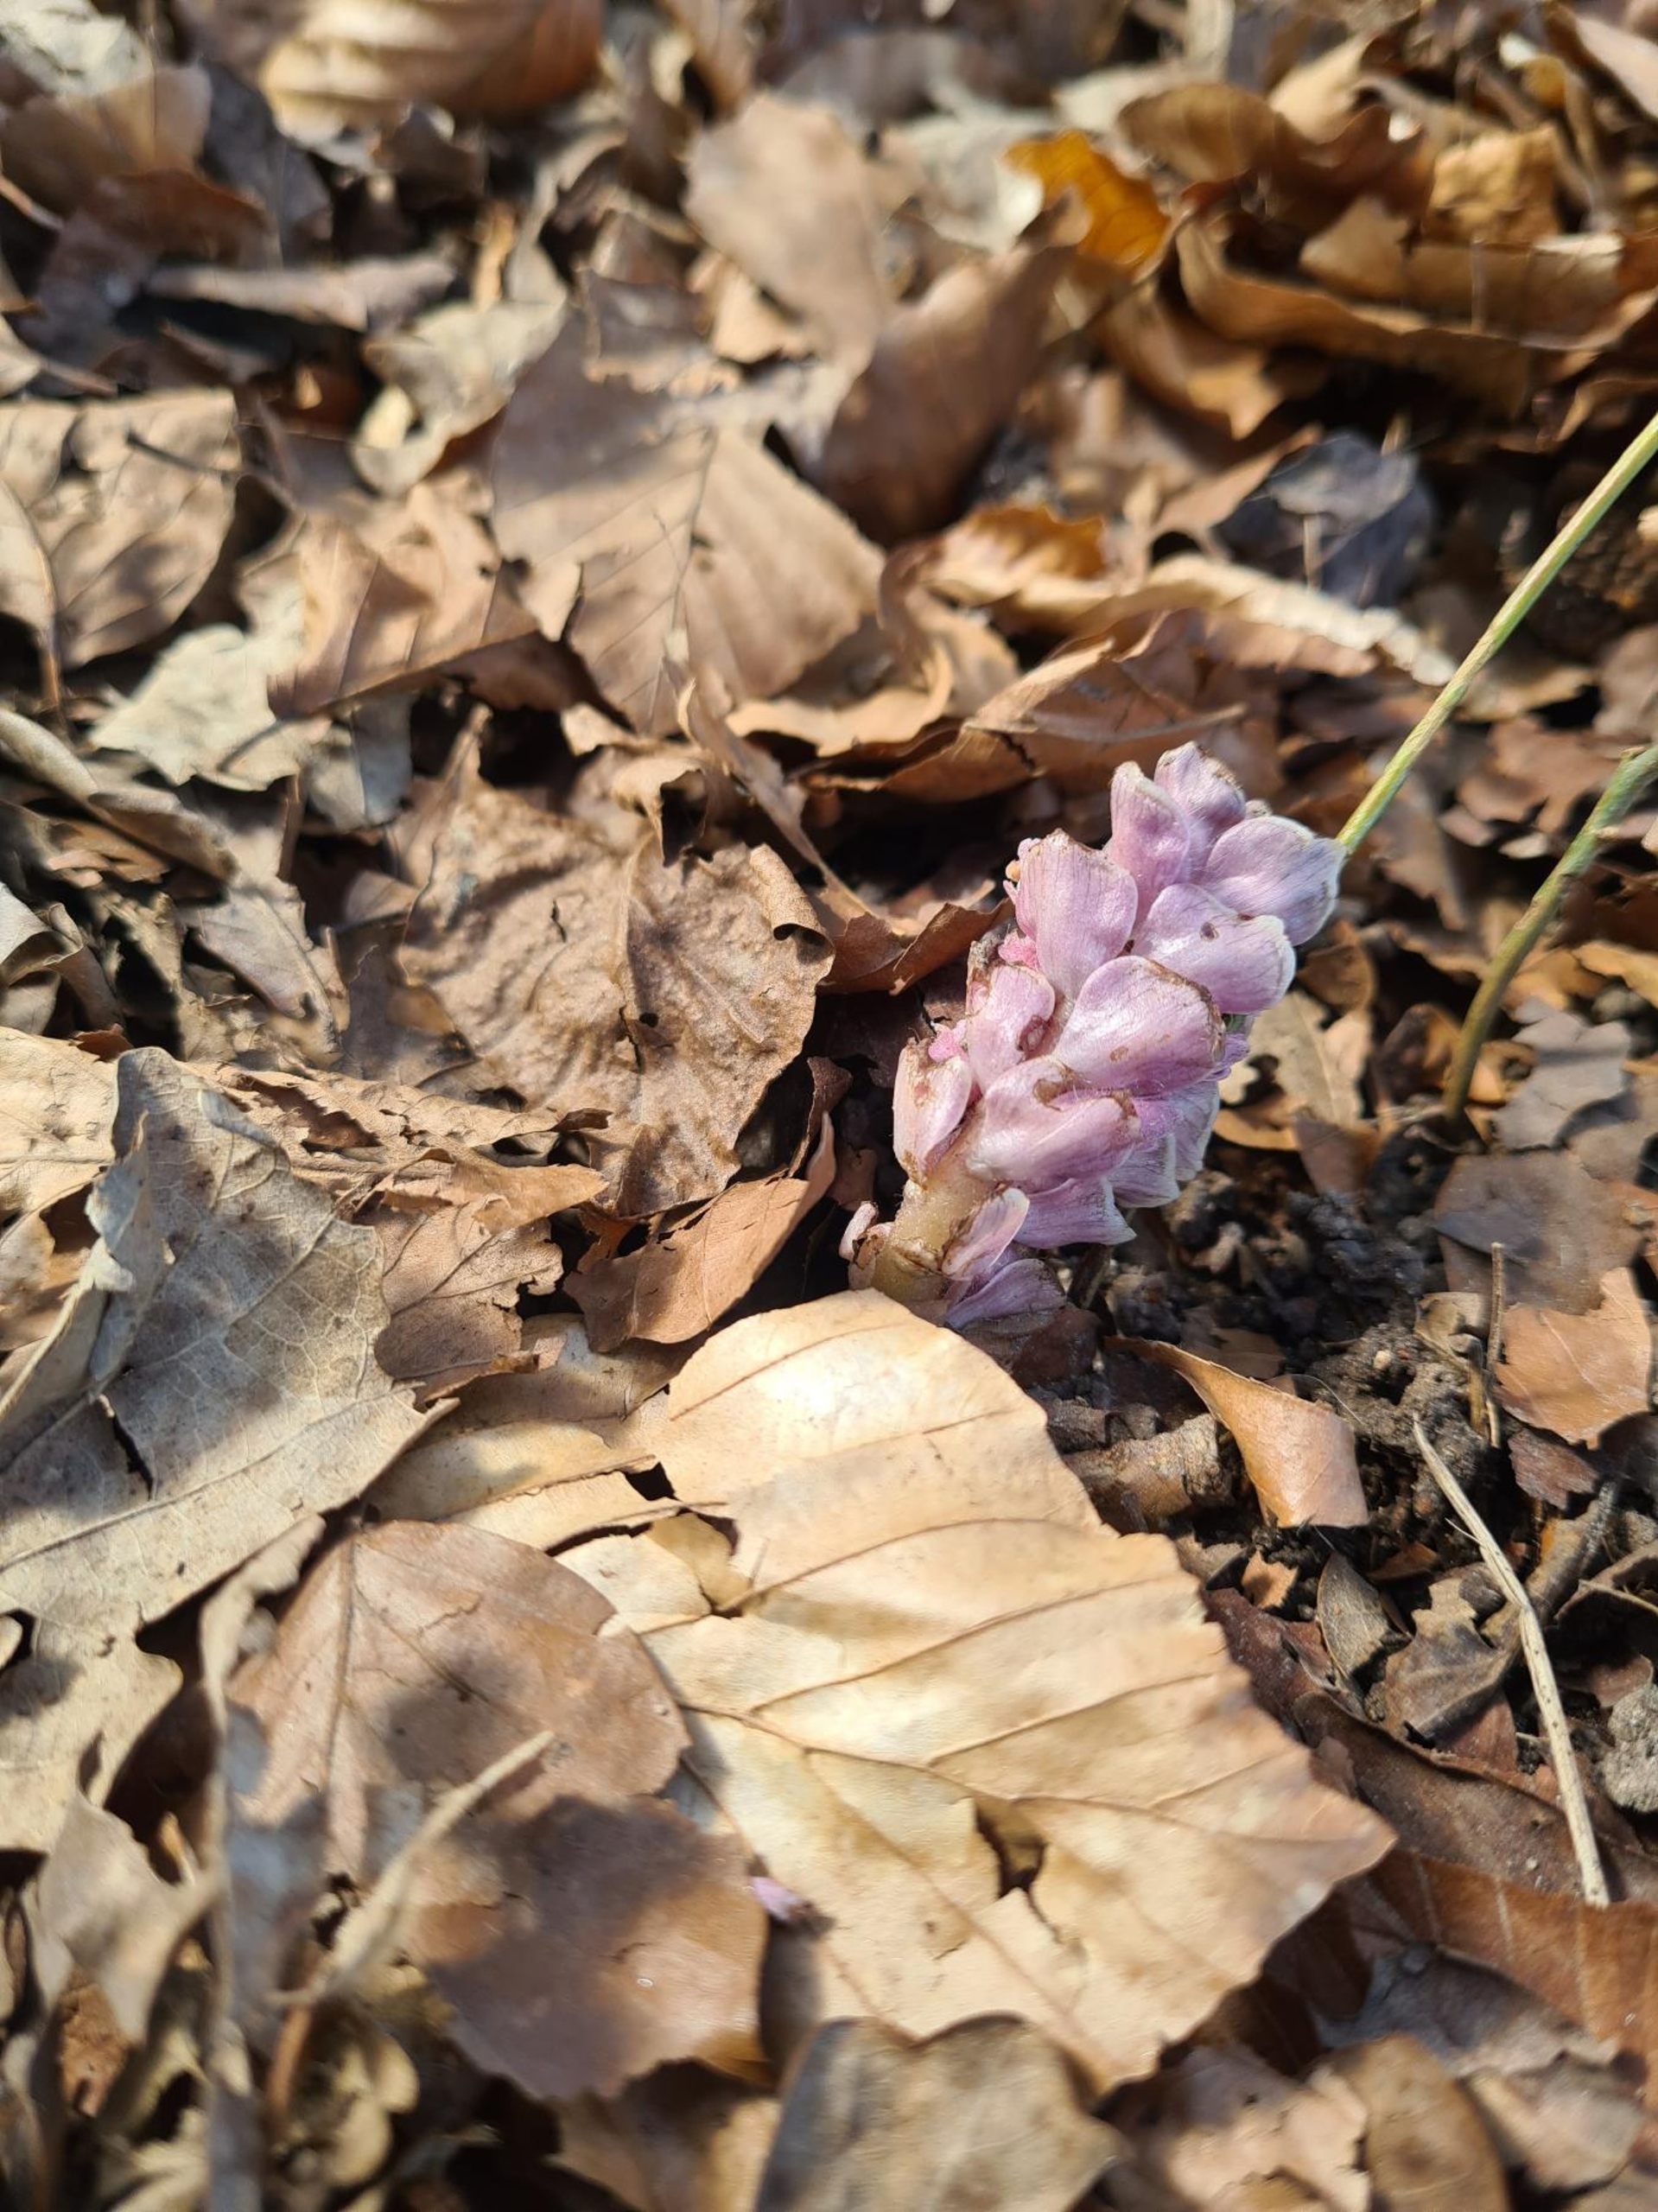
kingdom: Plantae
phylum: Tracheophyta
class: Magnoliopsida
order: Lamiales
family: Orobanchaceae
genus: Lathraea
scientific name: Lathraea squamaria
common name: Skælrod
